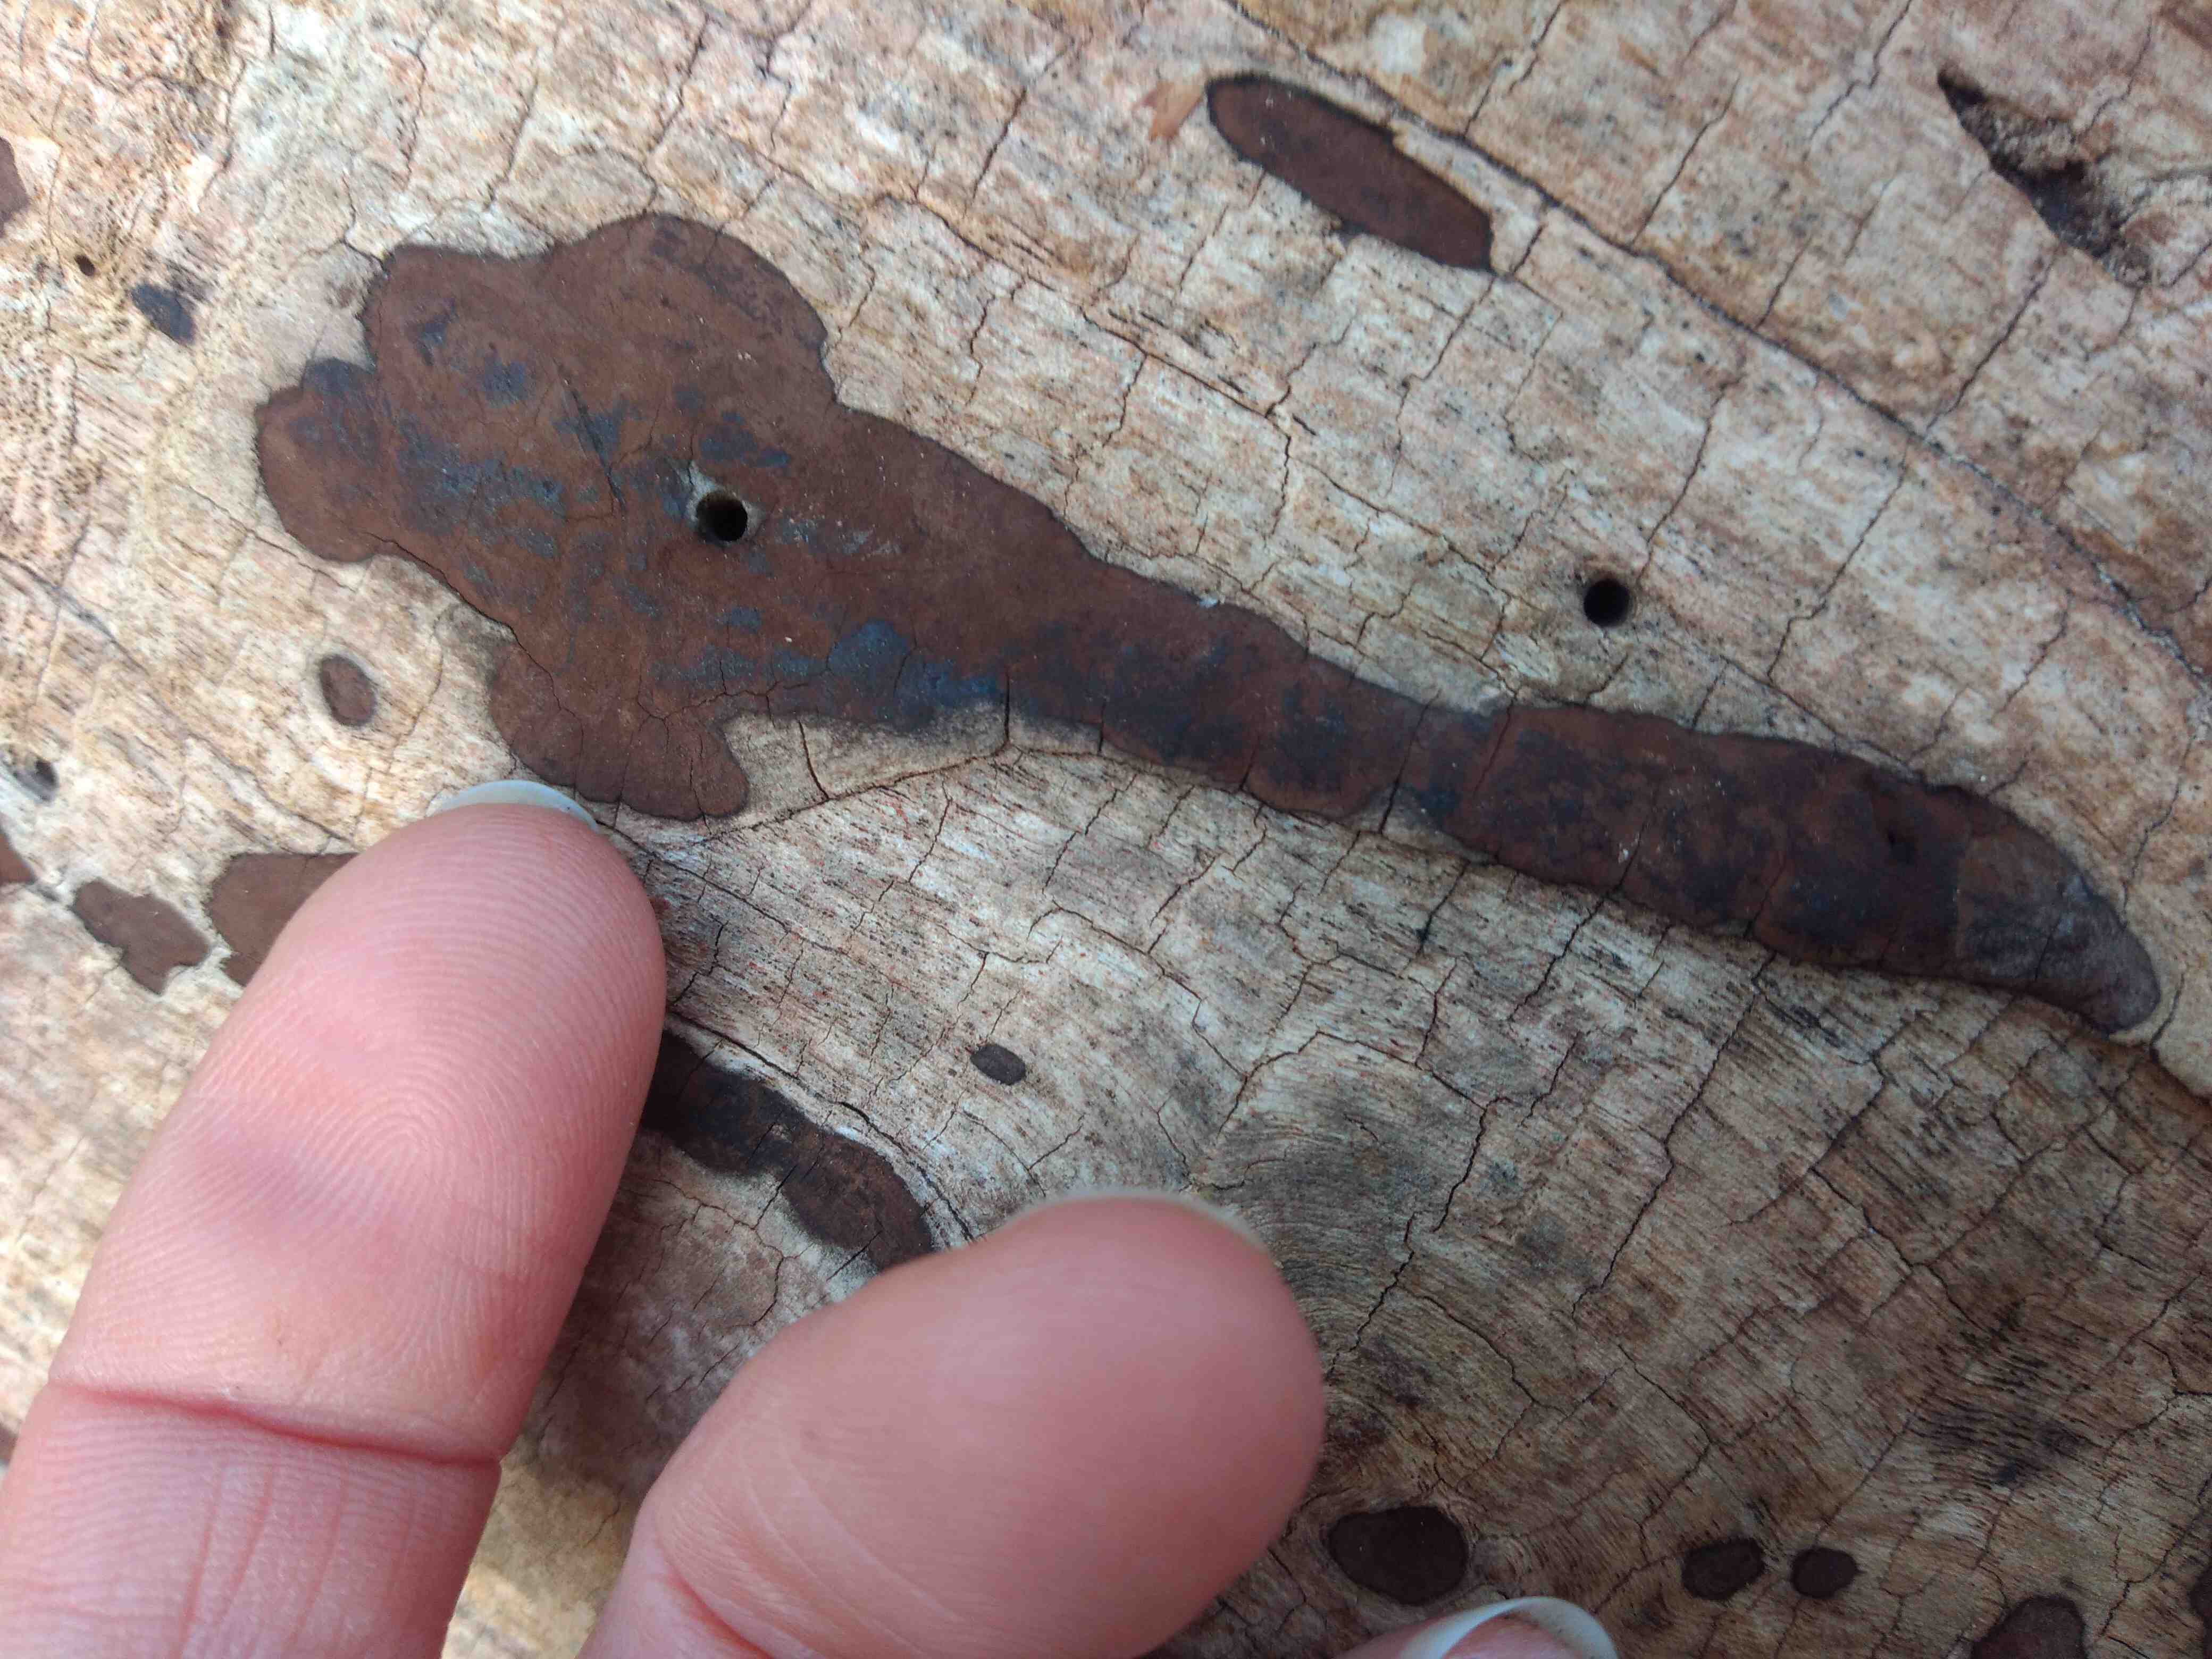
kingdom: Fungi
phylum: Ascomycota
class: Sordariomycetes
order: Xylariales
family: Hypoxylaceae
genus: Hypoxylon
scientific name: Hypoxylon petriniae
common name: nedsænket kulbær
